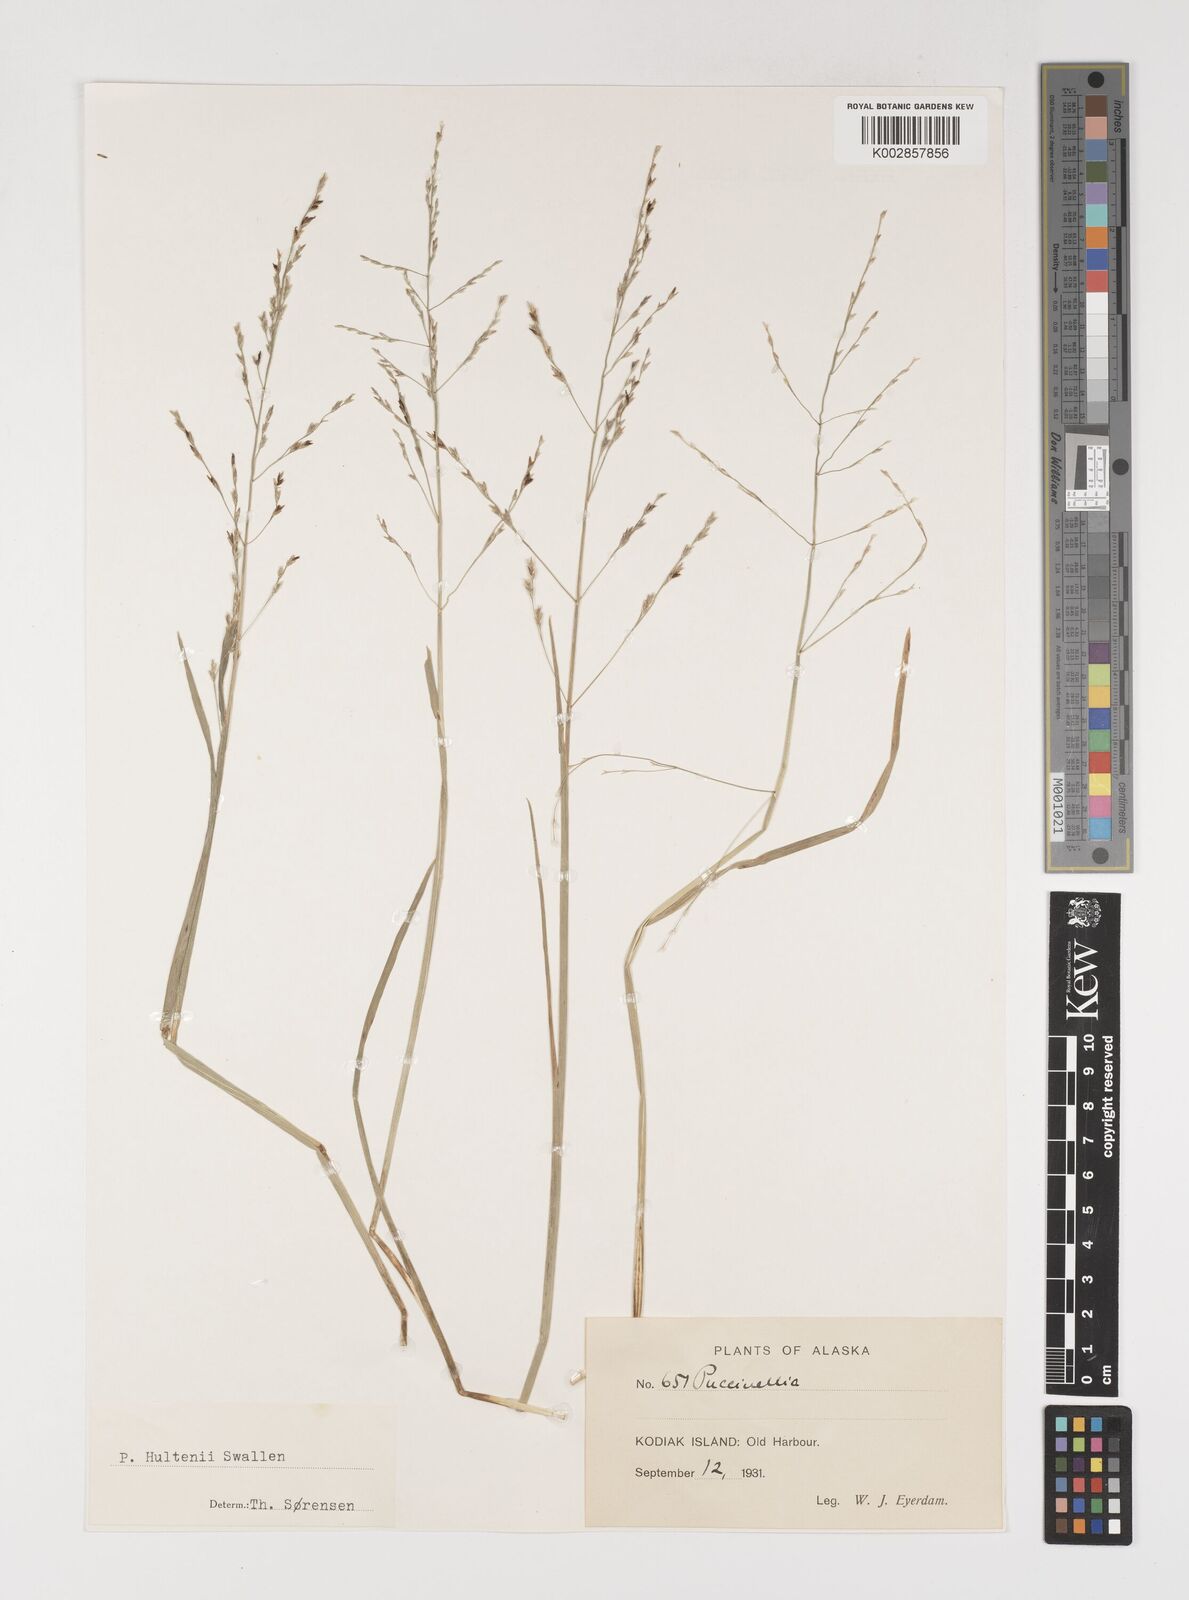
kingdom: Plantae
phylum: Tracheophyta
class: Liliopsida
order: Poales
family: Poaceae
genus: Puccinellia
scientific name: Puccinellia andersonii
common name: Anderson's alkali grass
